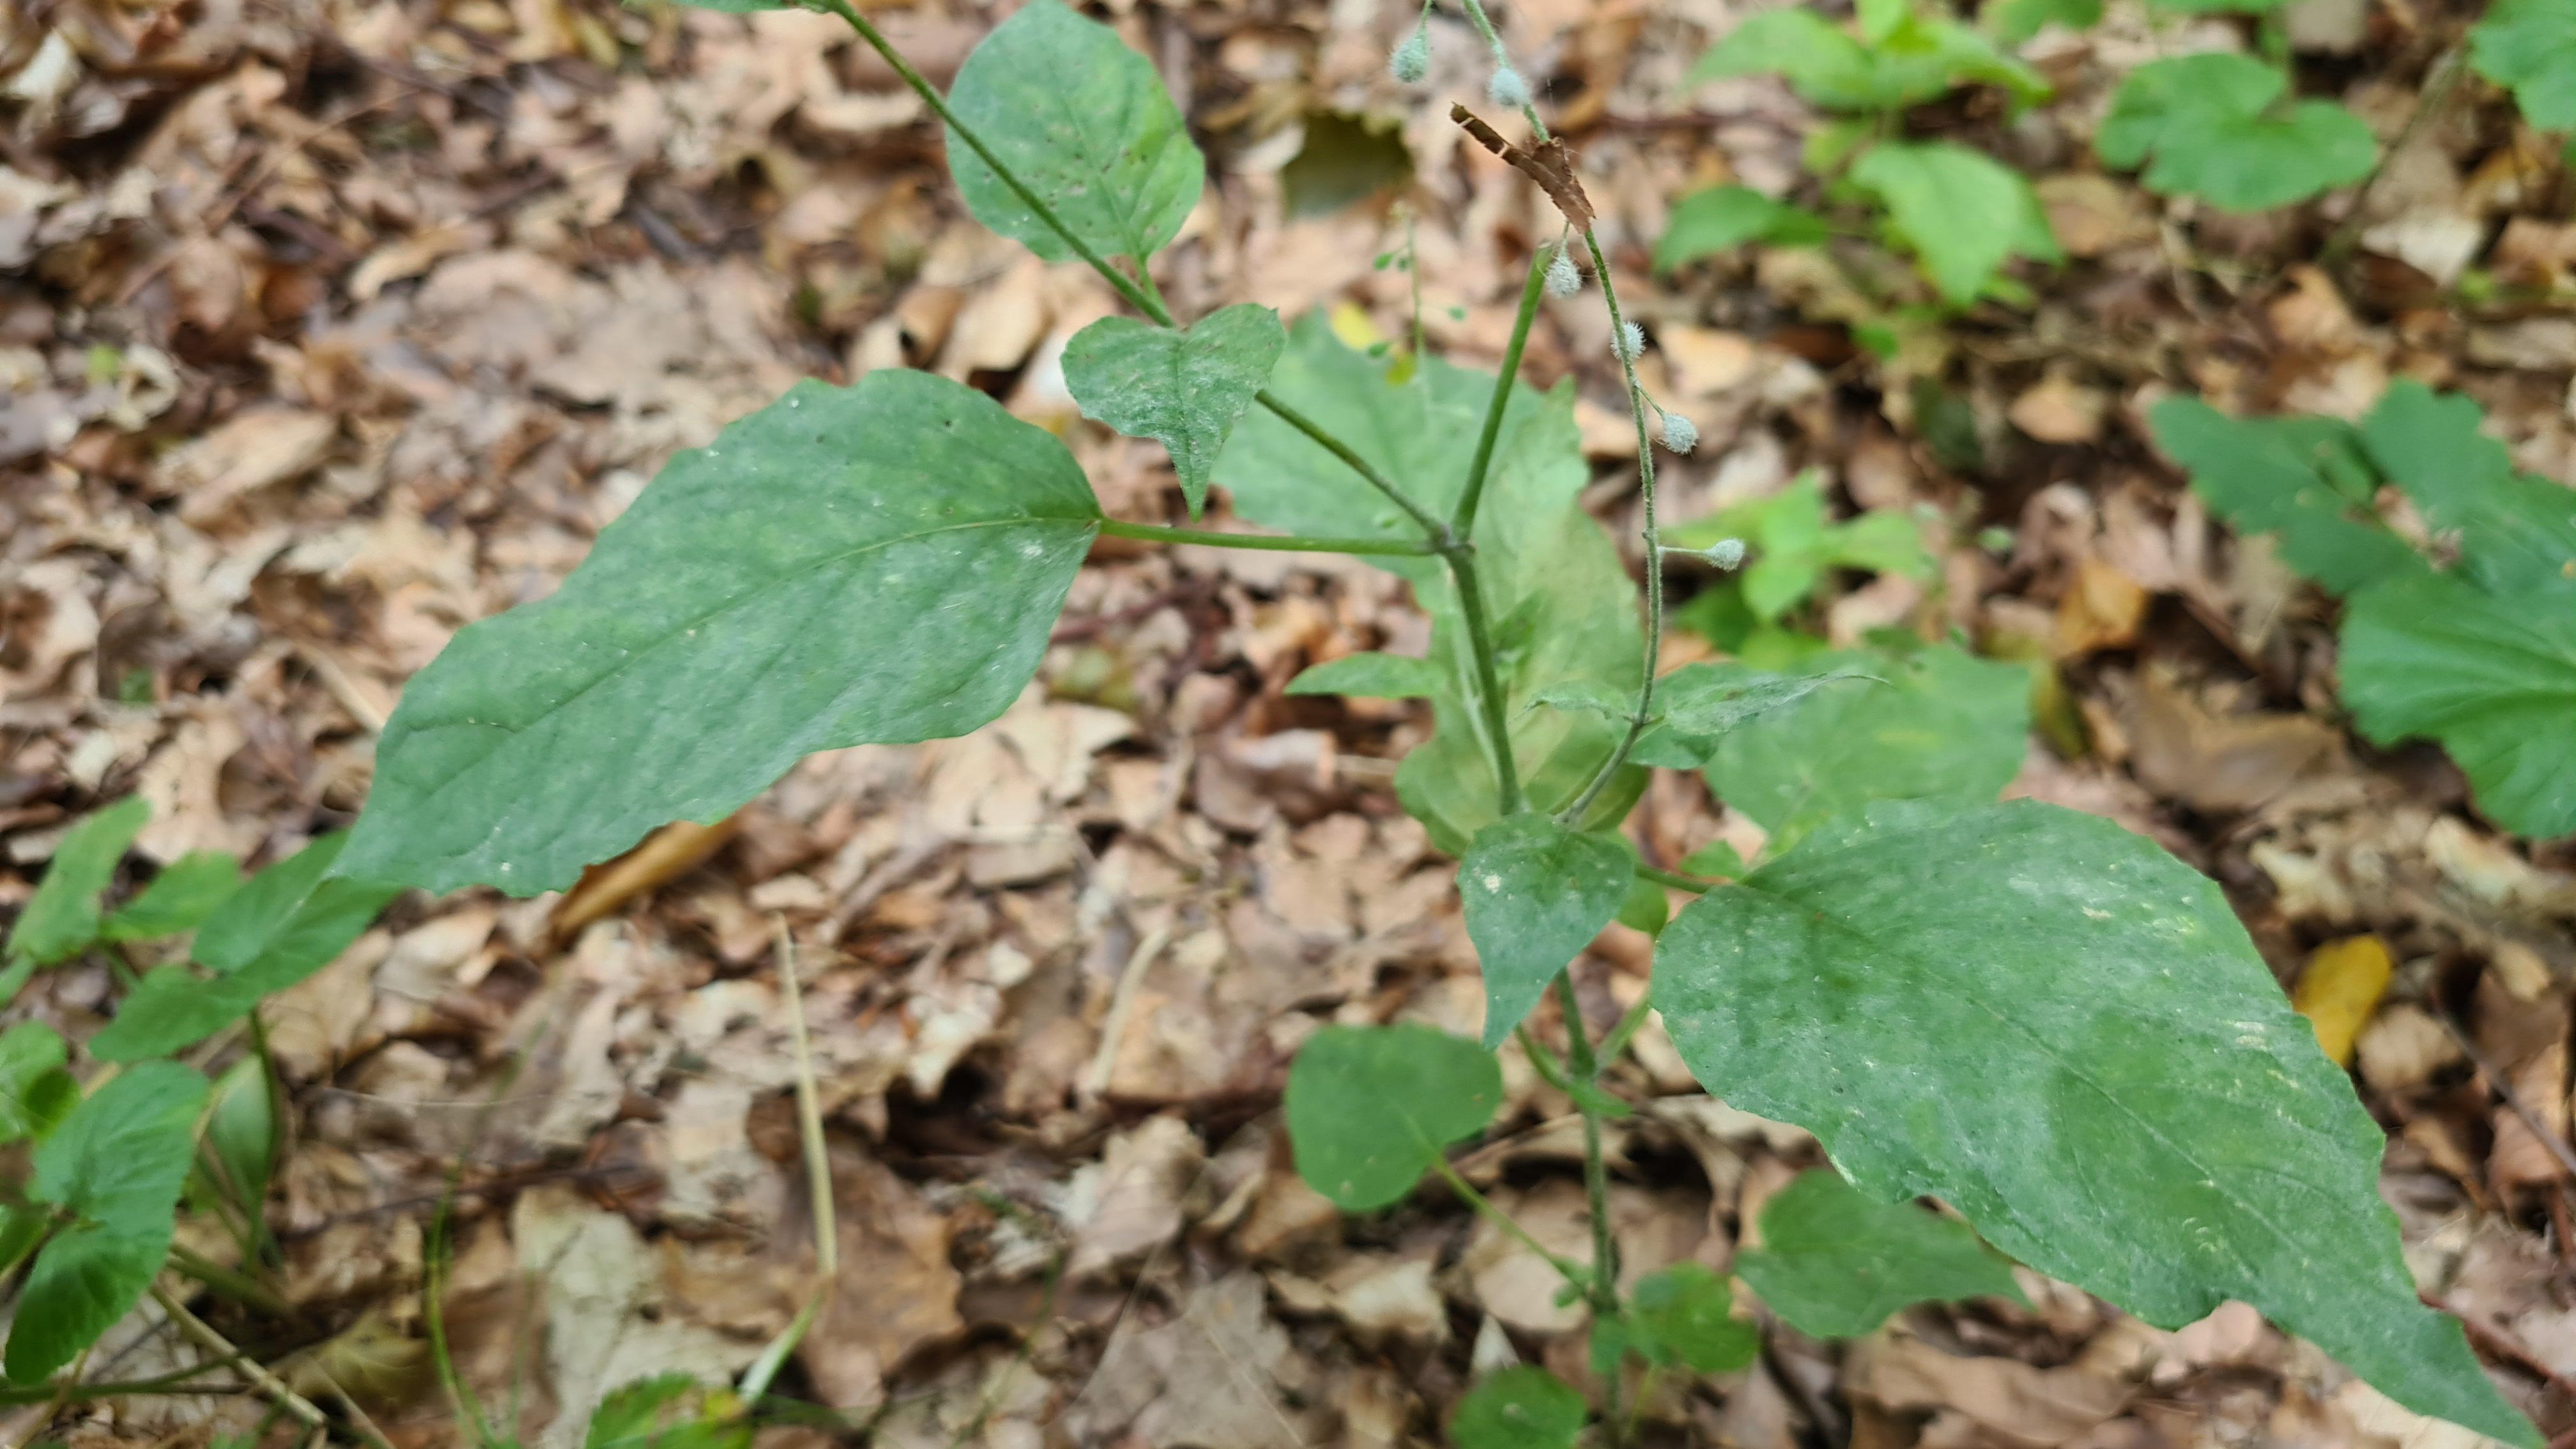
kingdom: Fungi
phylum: Ascomycota
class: Leotiomycetes
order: Helotiales
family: Erysiphaceae
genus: Erysiphe
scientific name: Erysiphe circaeae
